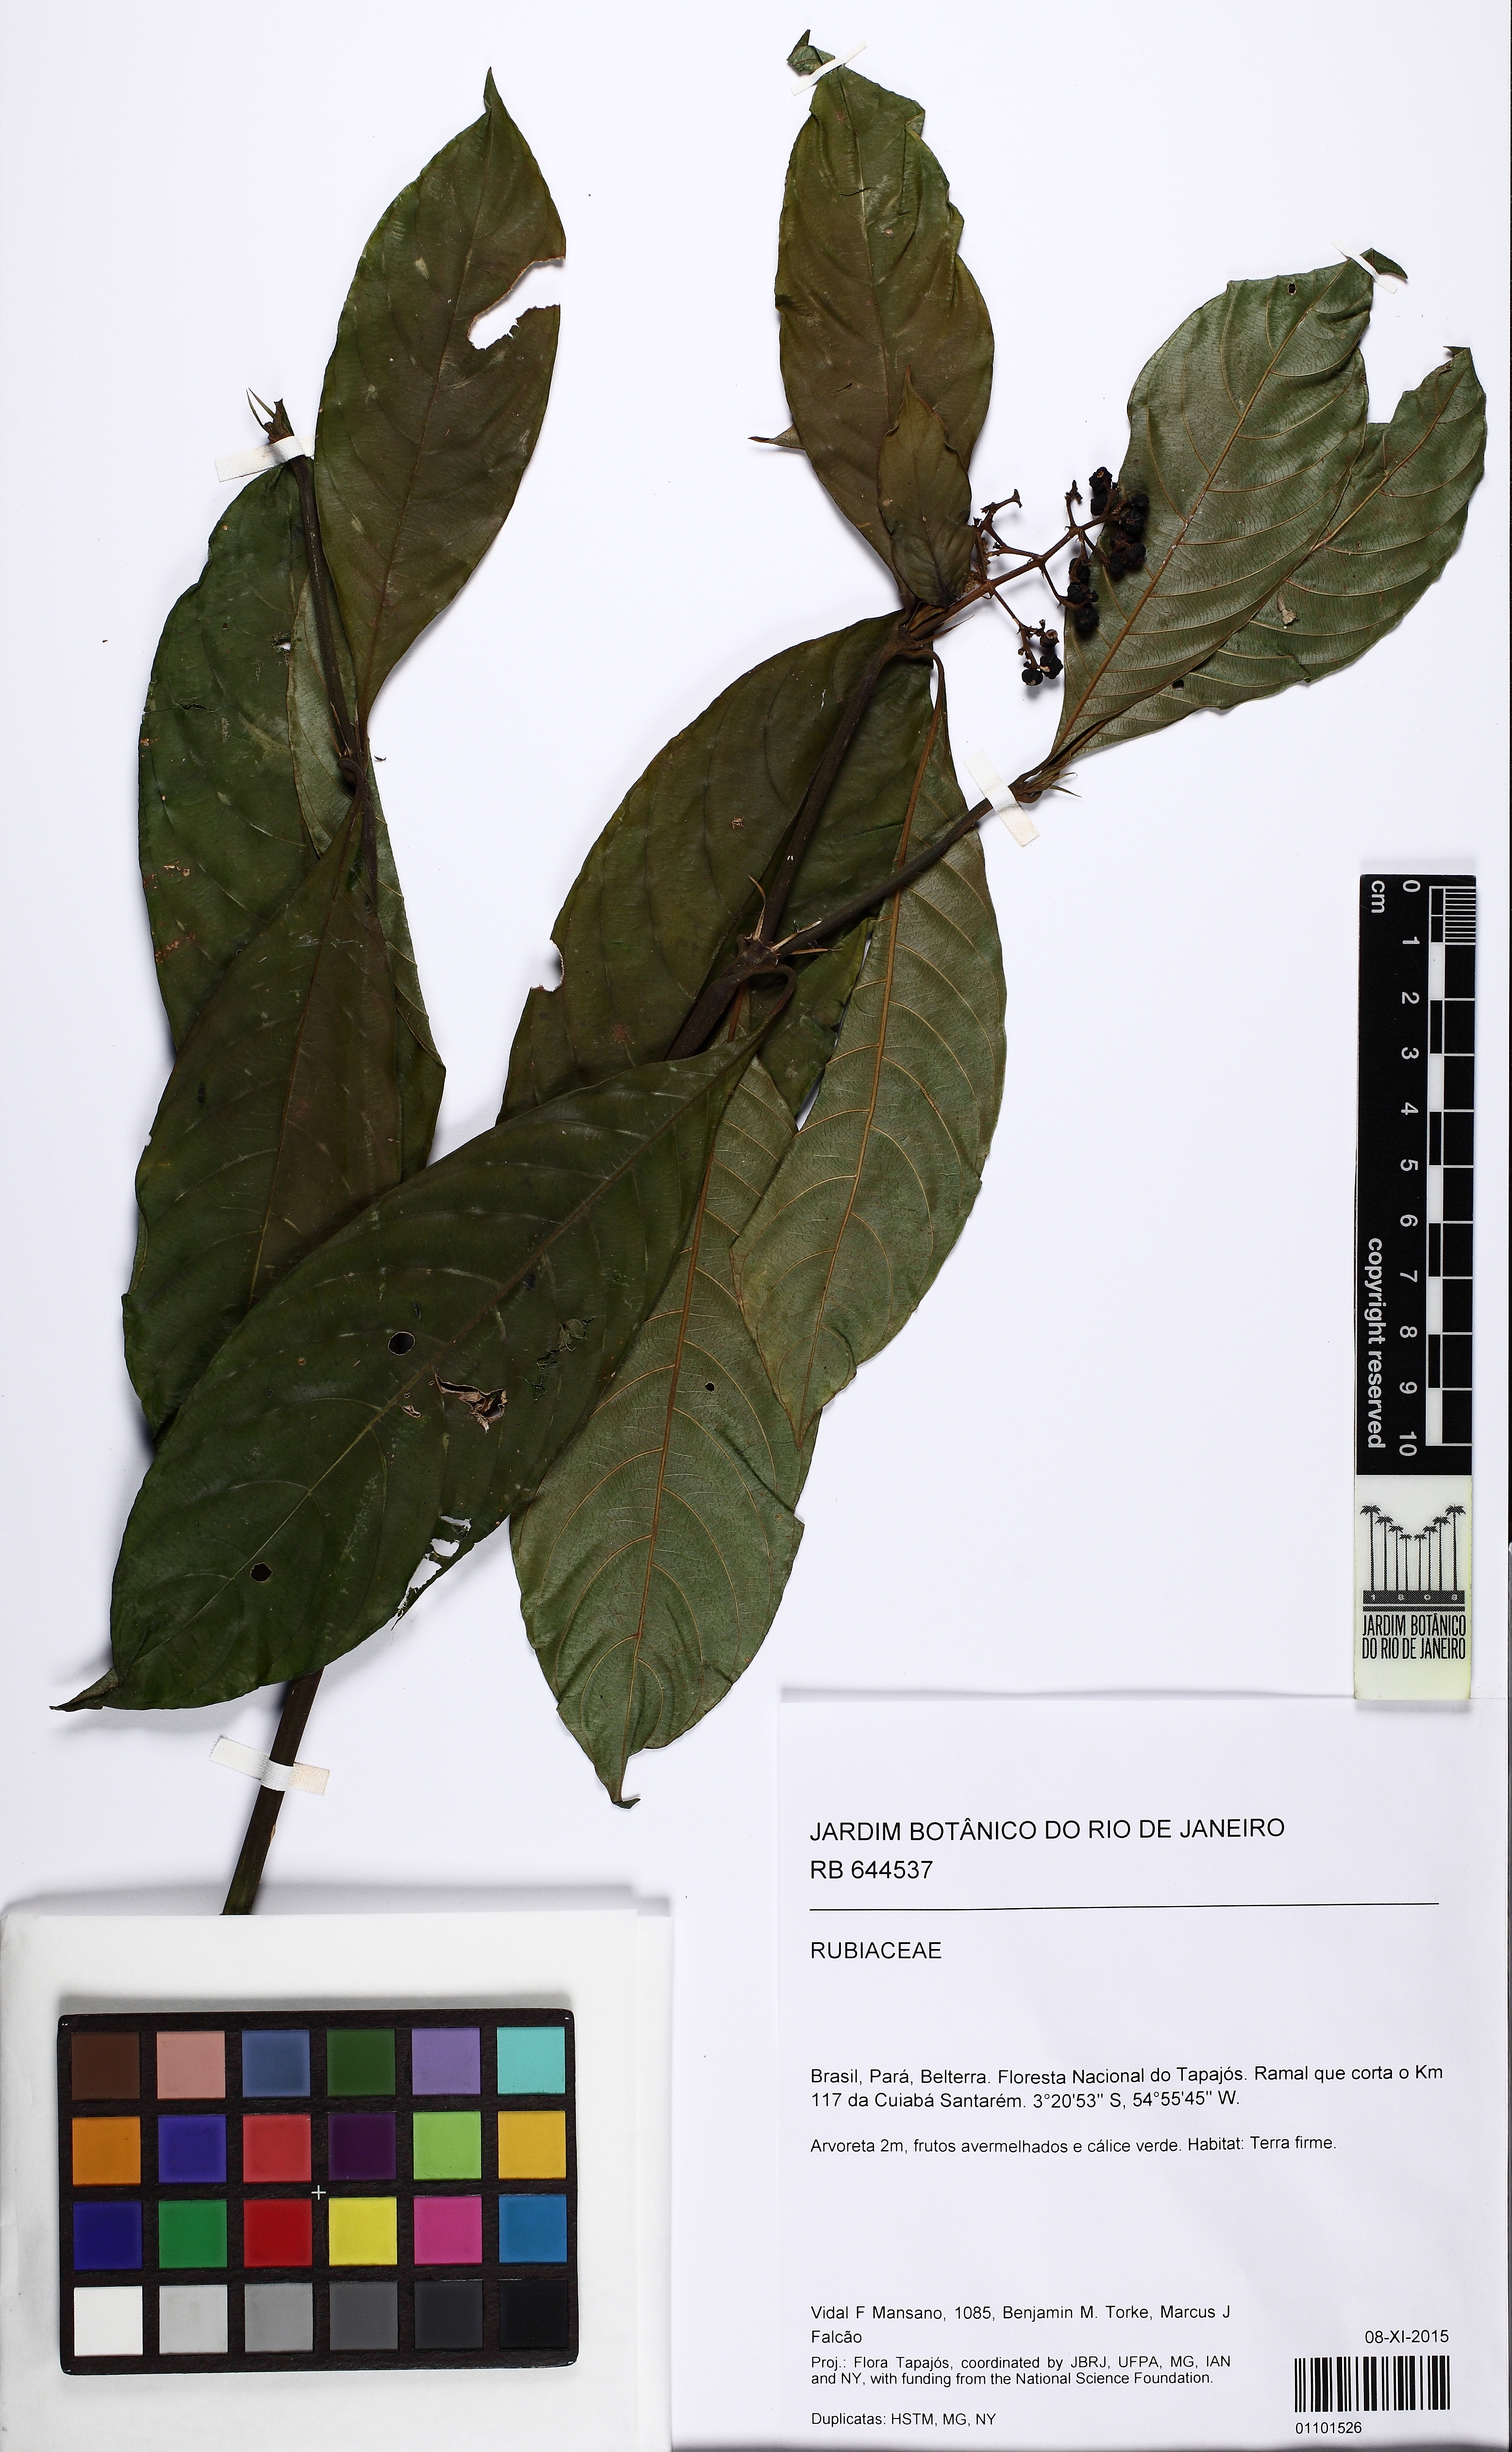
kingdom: Plantae
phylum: Tracheophyta
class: Magnoliopsida
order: Gentianales
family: Rubiaceae
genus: Palicourea
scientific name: Palicourea racemosa
